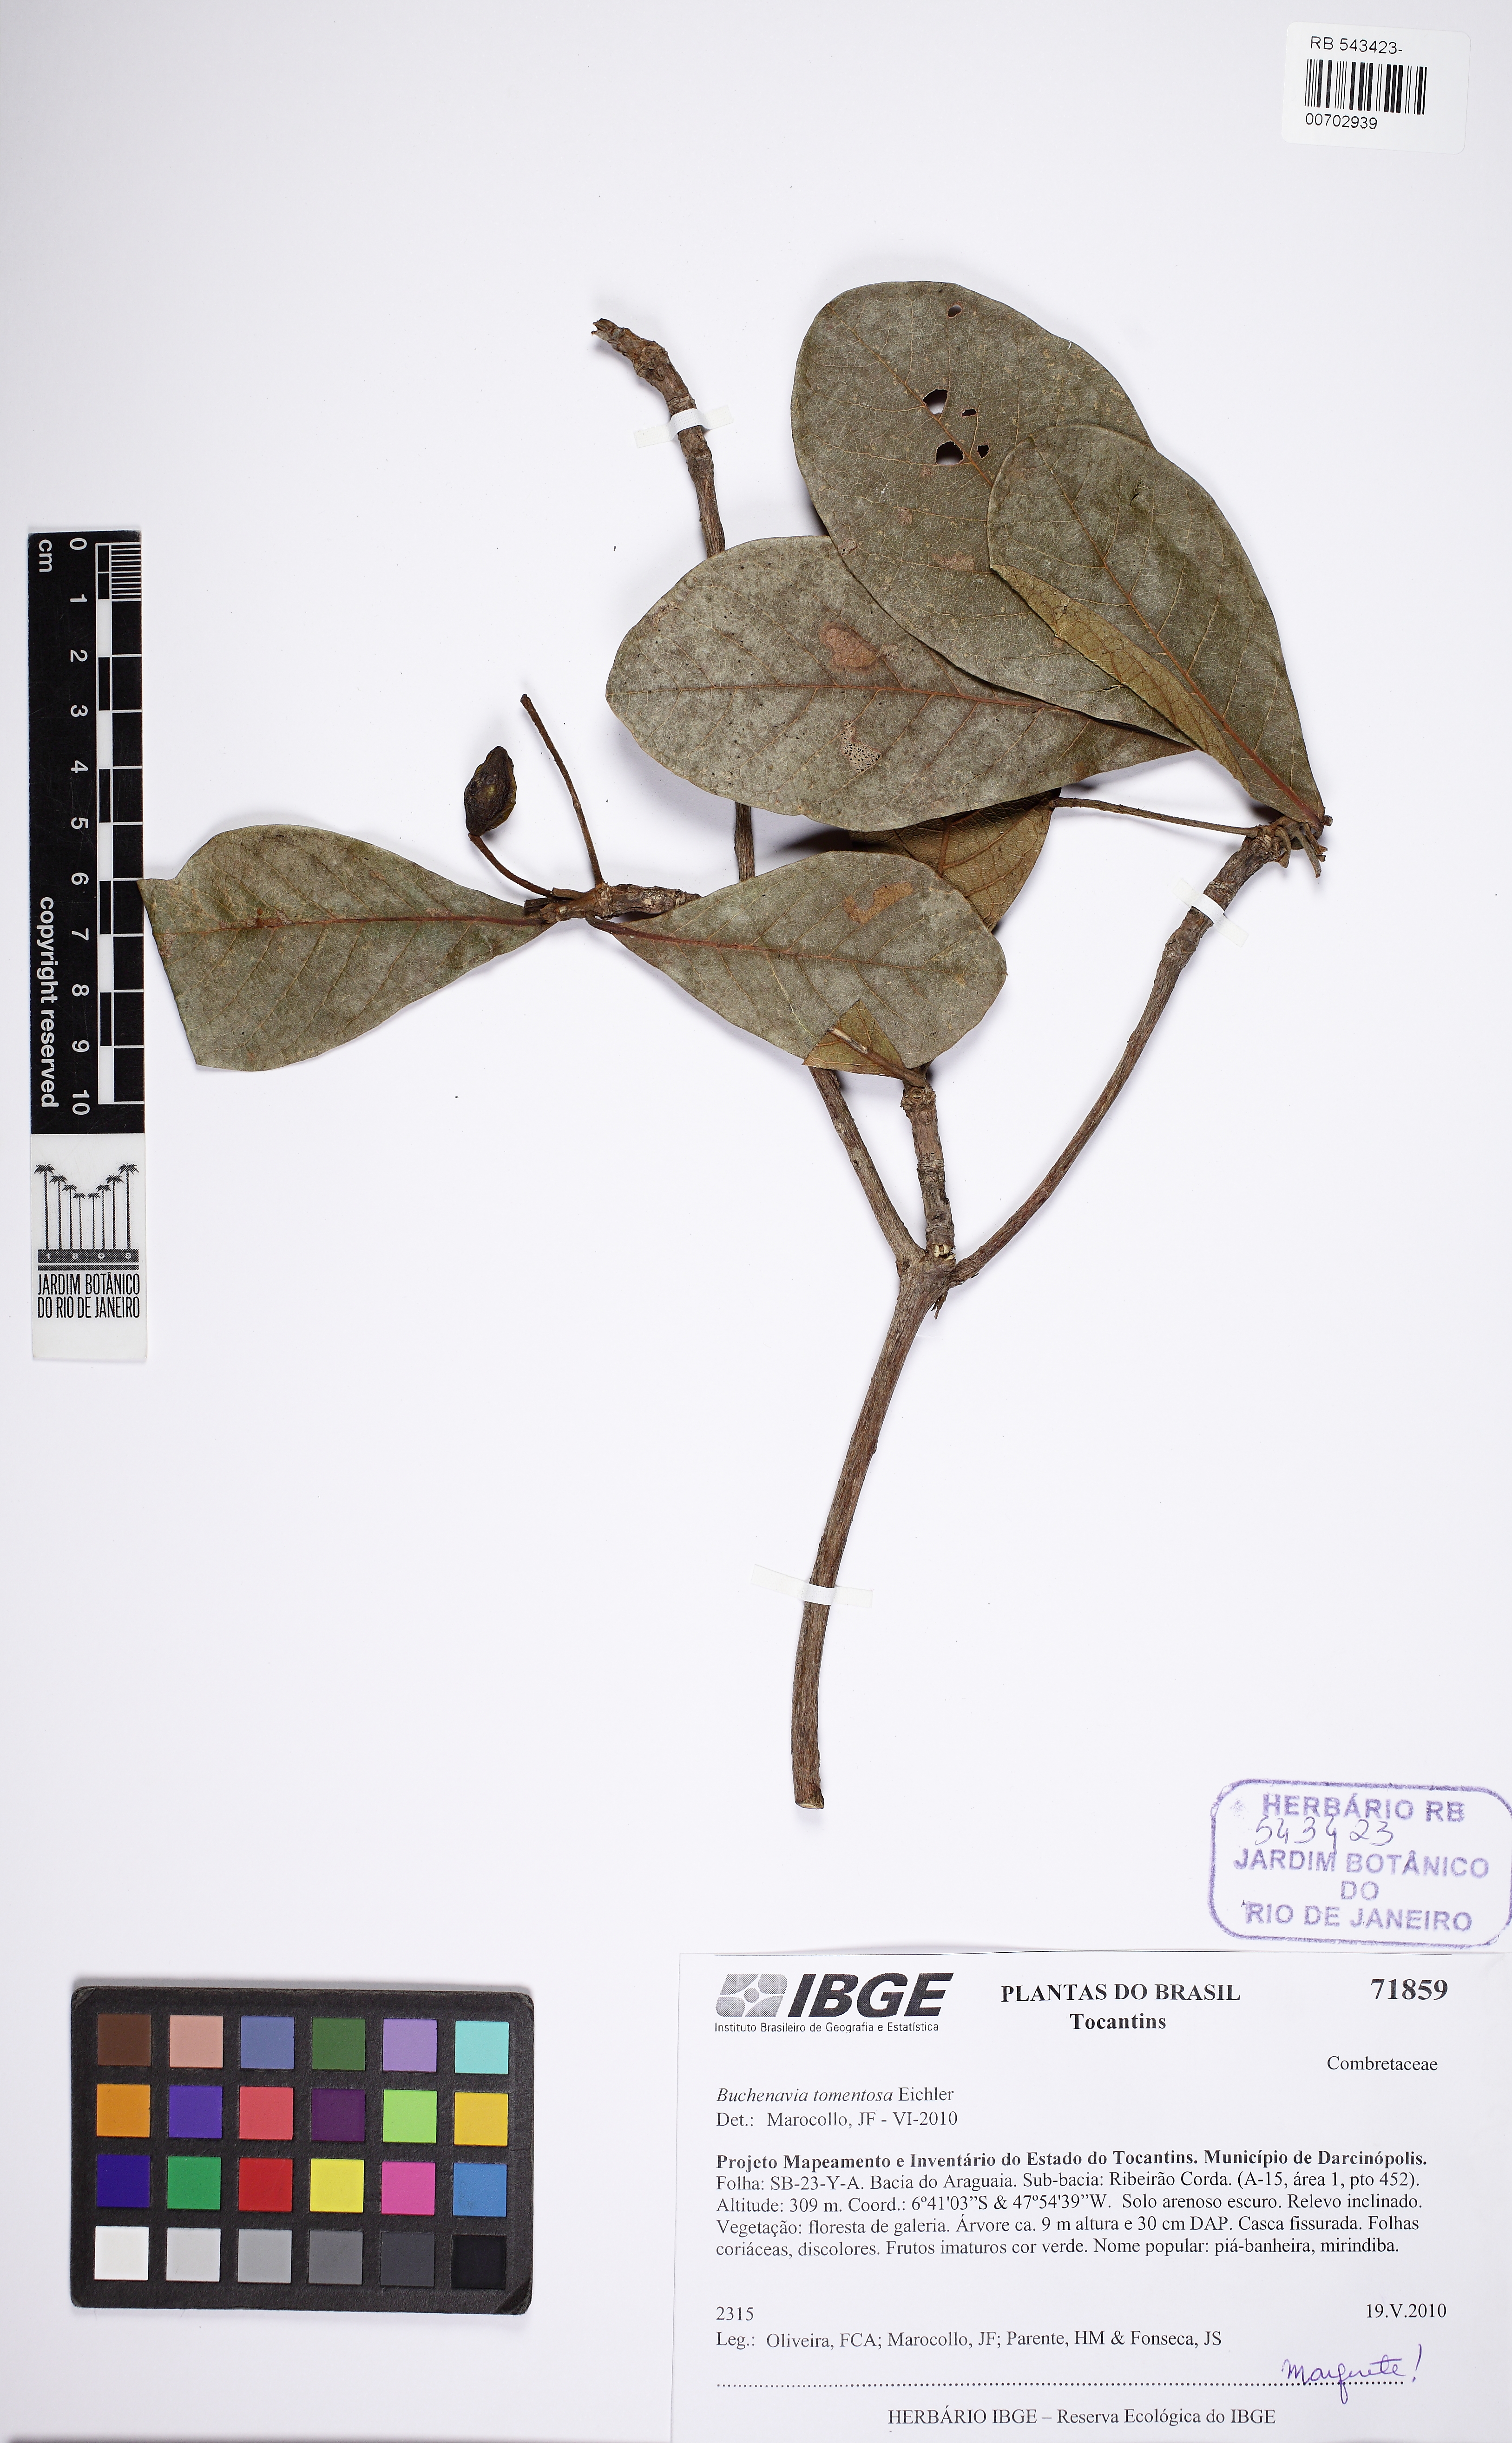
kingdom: Plantae
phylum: Tracheophyta
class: Magnoliopsida
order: Myrtales
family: Combretaceae
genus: Terminalia
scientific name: Terminalia corrugata
